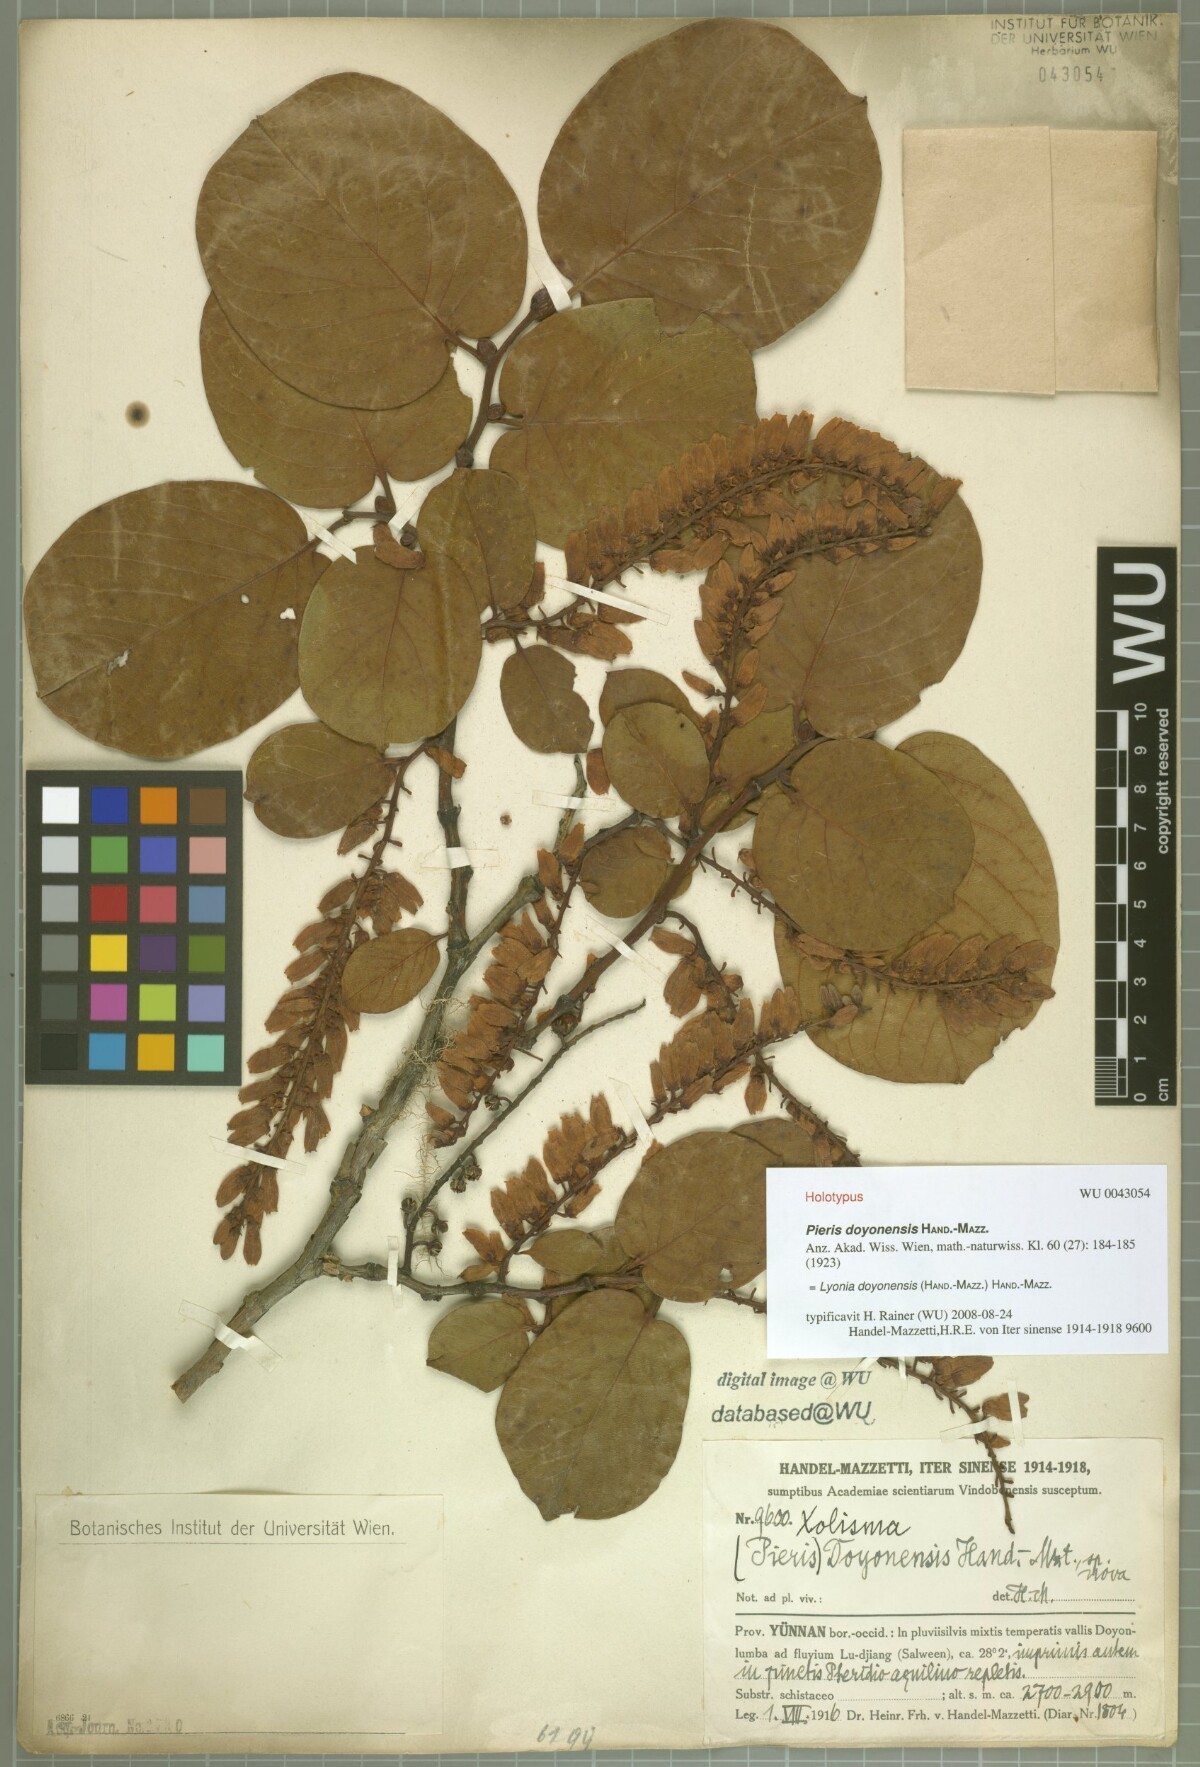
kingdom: Plantae
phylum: Tracheophyta
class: Magnoliopsida
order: Ericales
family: Ericaceae
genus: Lyonia
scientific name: Lyonia doyonensis
